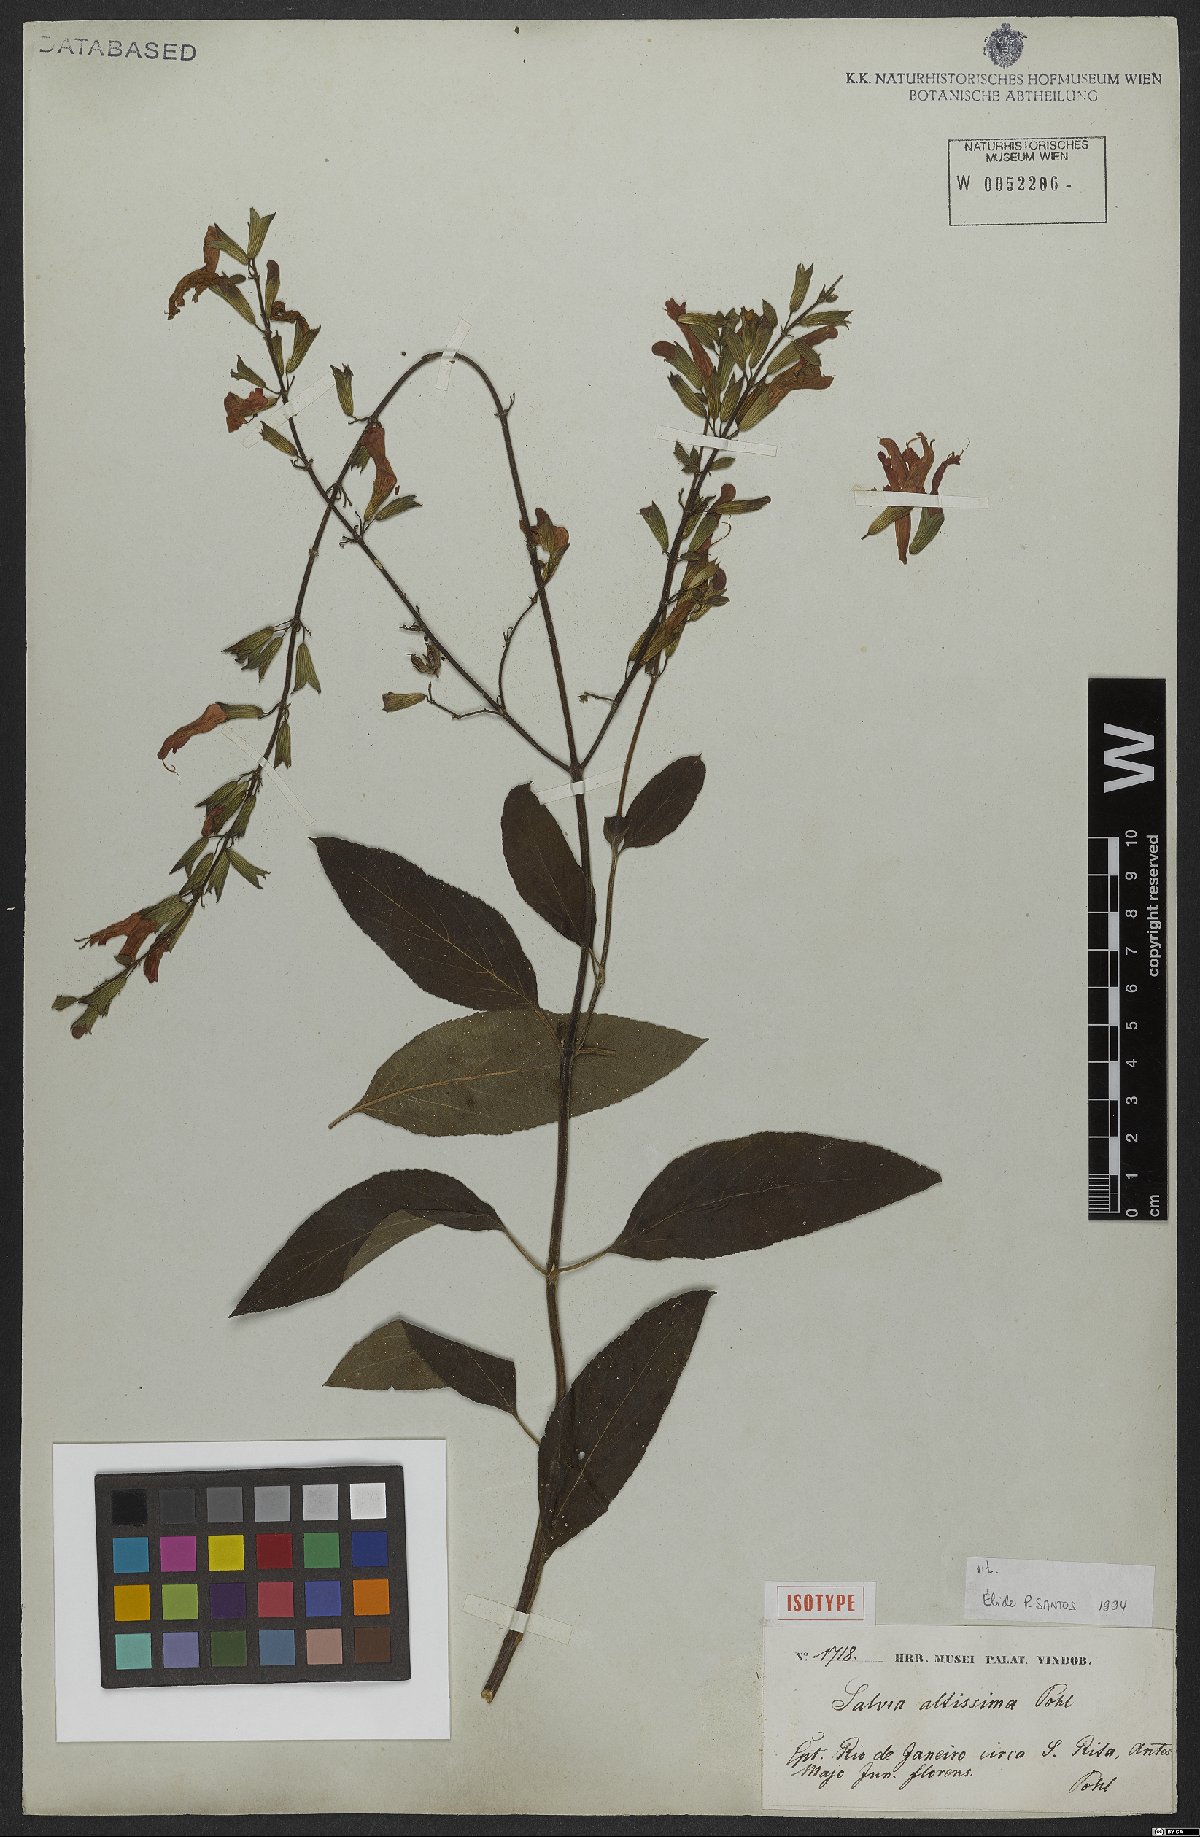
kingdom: Plantae
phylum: Tracheophyta
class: Magnoliopsida
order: Lamiales
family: Lamiaceae
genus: Salvia
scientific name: Salvia altissima
